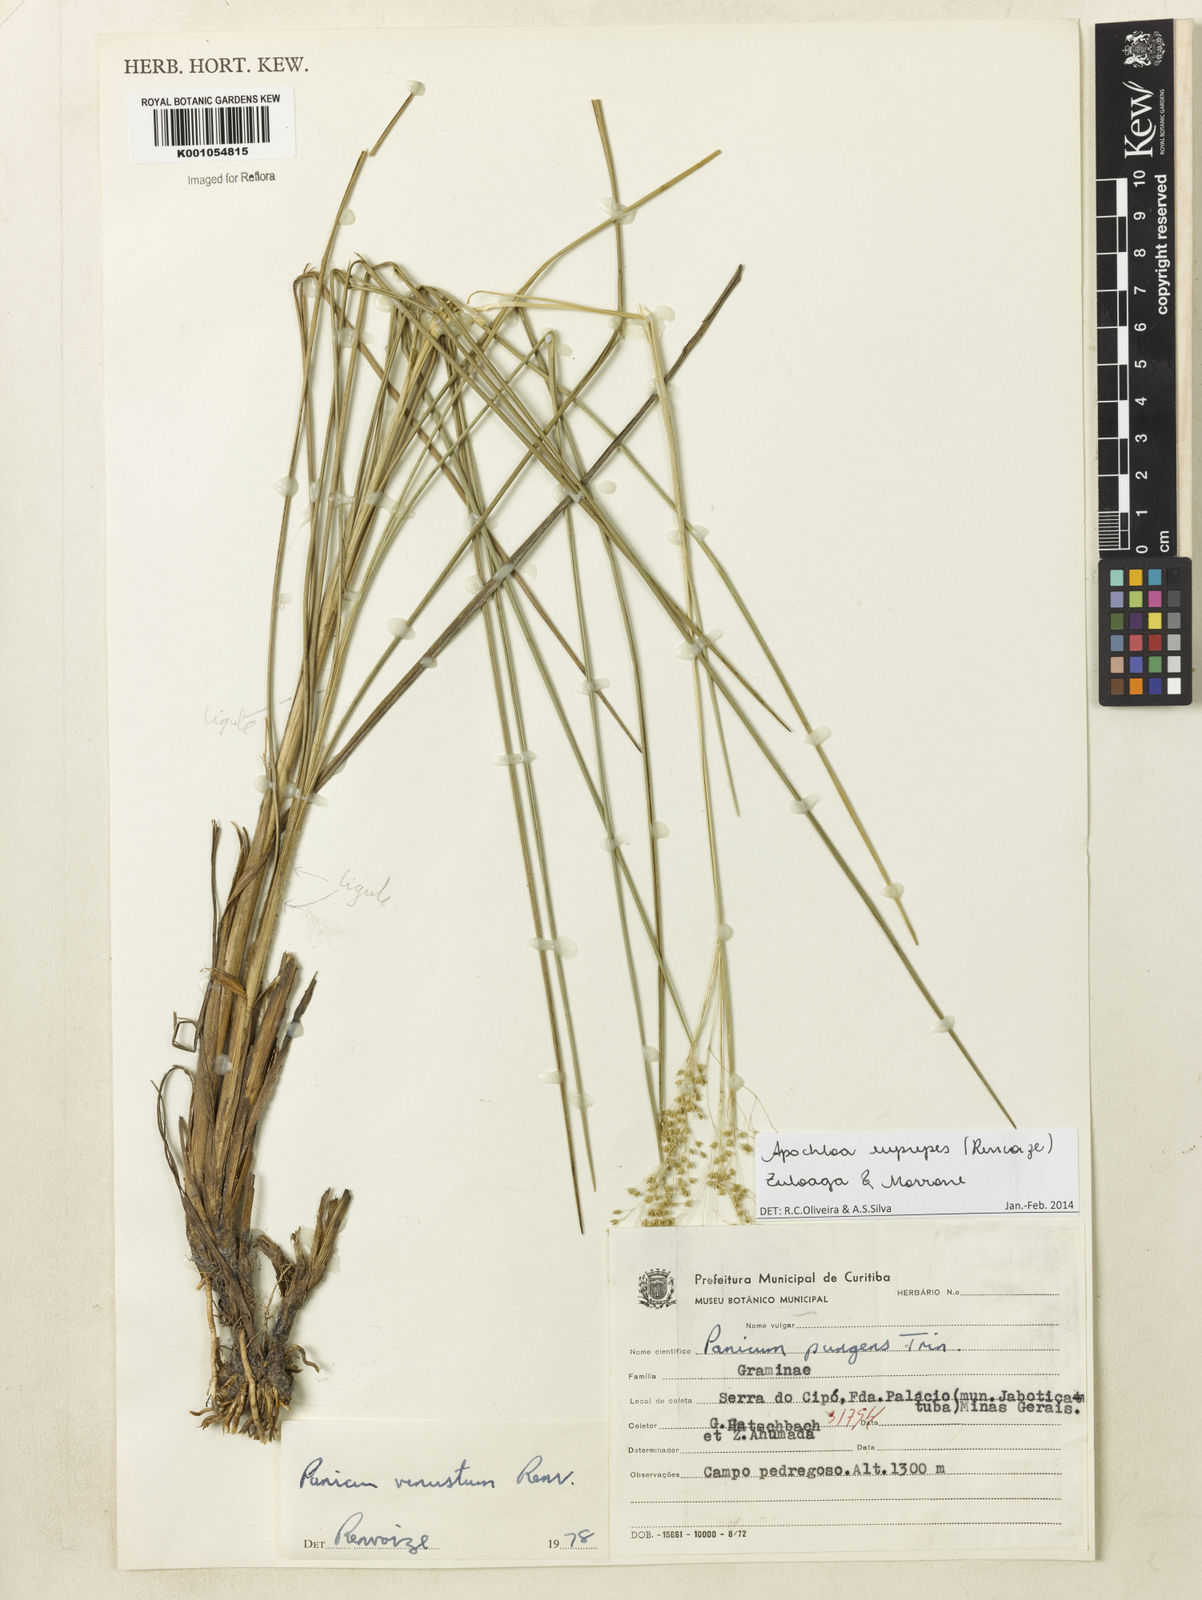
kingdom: Plantae
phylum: Tracheophyta
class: Liliopsida
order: Poales
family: Poaceae
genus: Apochloa
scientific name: Apochloa euprepes
